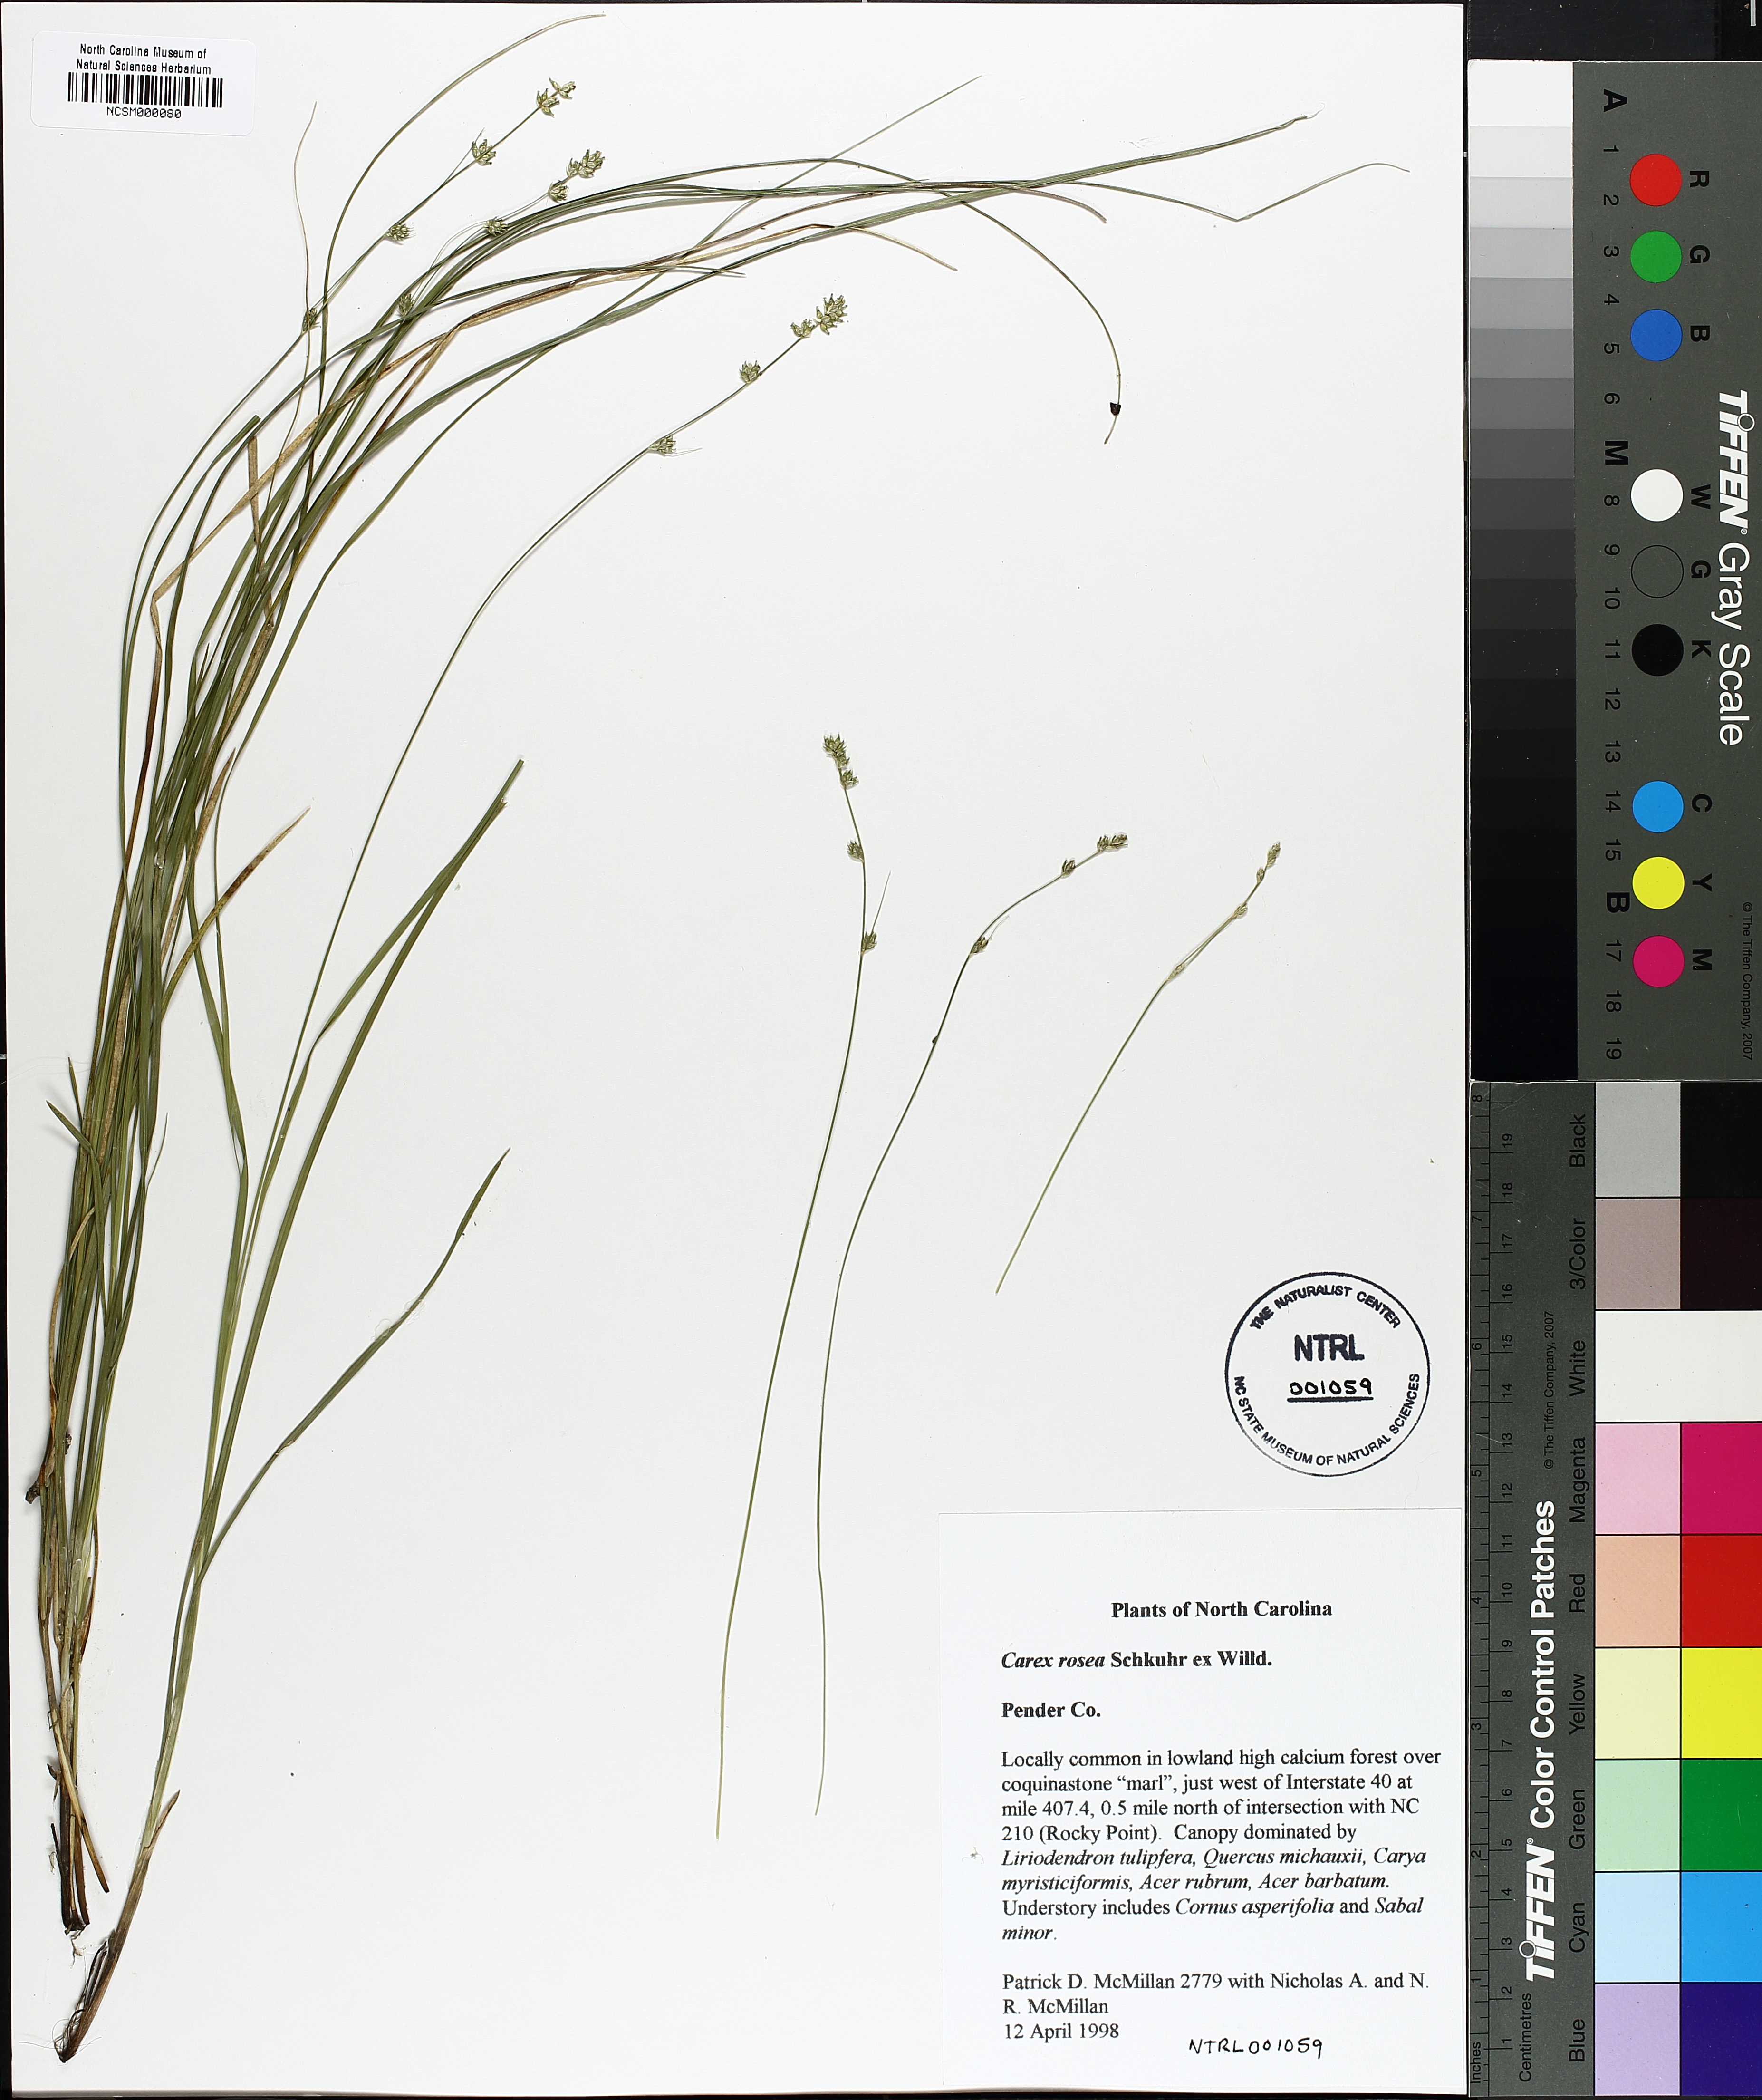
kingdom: Plantae
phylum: Tracheophyta
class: Liliopsida
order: Poales
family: Cyperaceae
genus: Carex
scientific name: Carex rosea
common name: Curly-styled wood sedge
